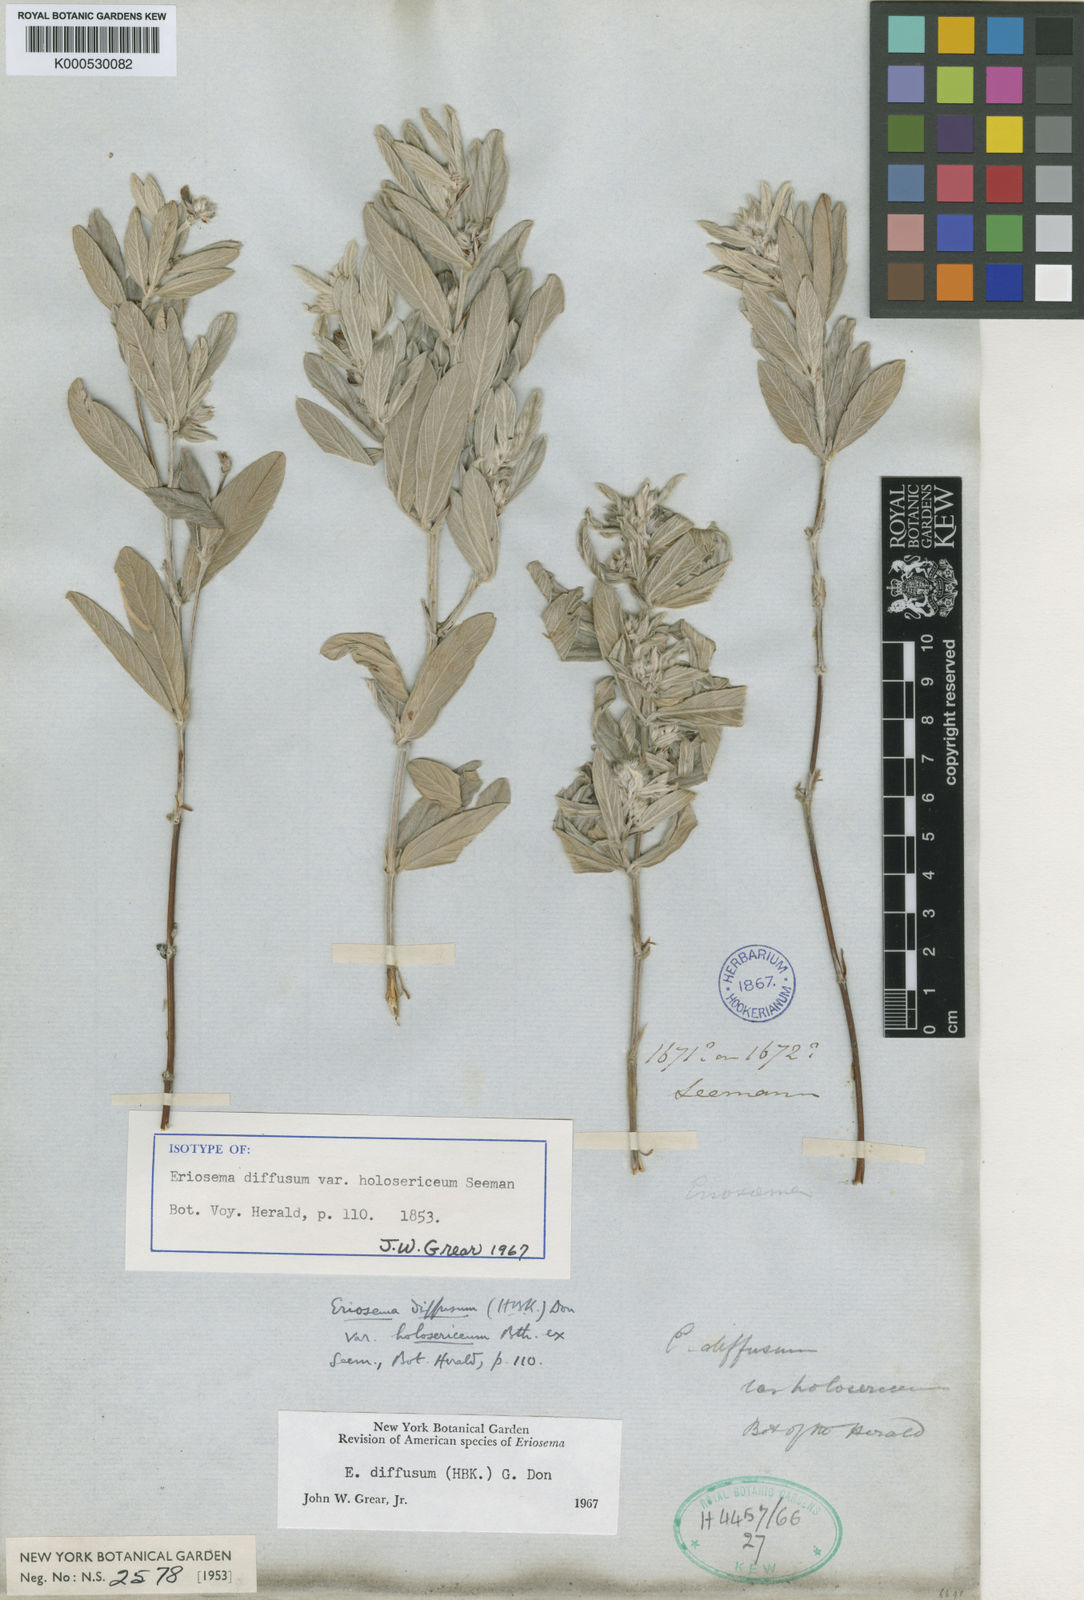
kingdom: Plantae
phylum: Tracheophyta
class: Magnoliopsida
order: Fabales
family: Fabaceae
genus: Eriosema
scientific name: Eriosema diffusum
